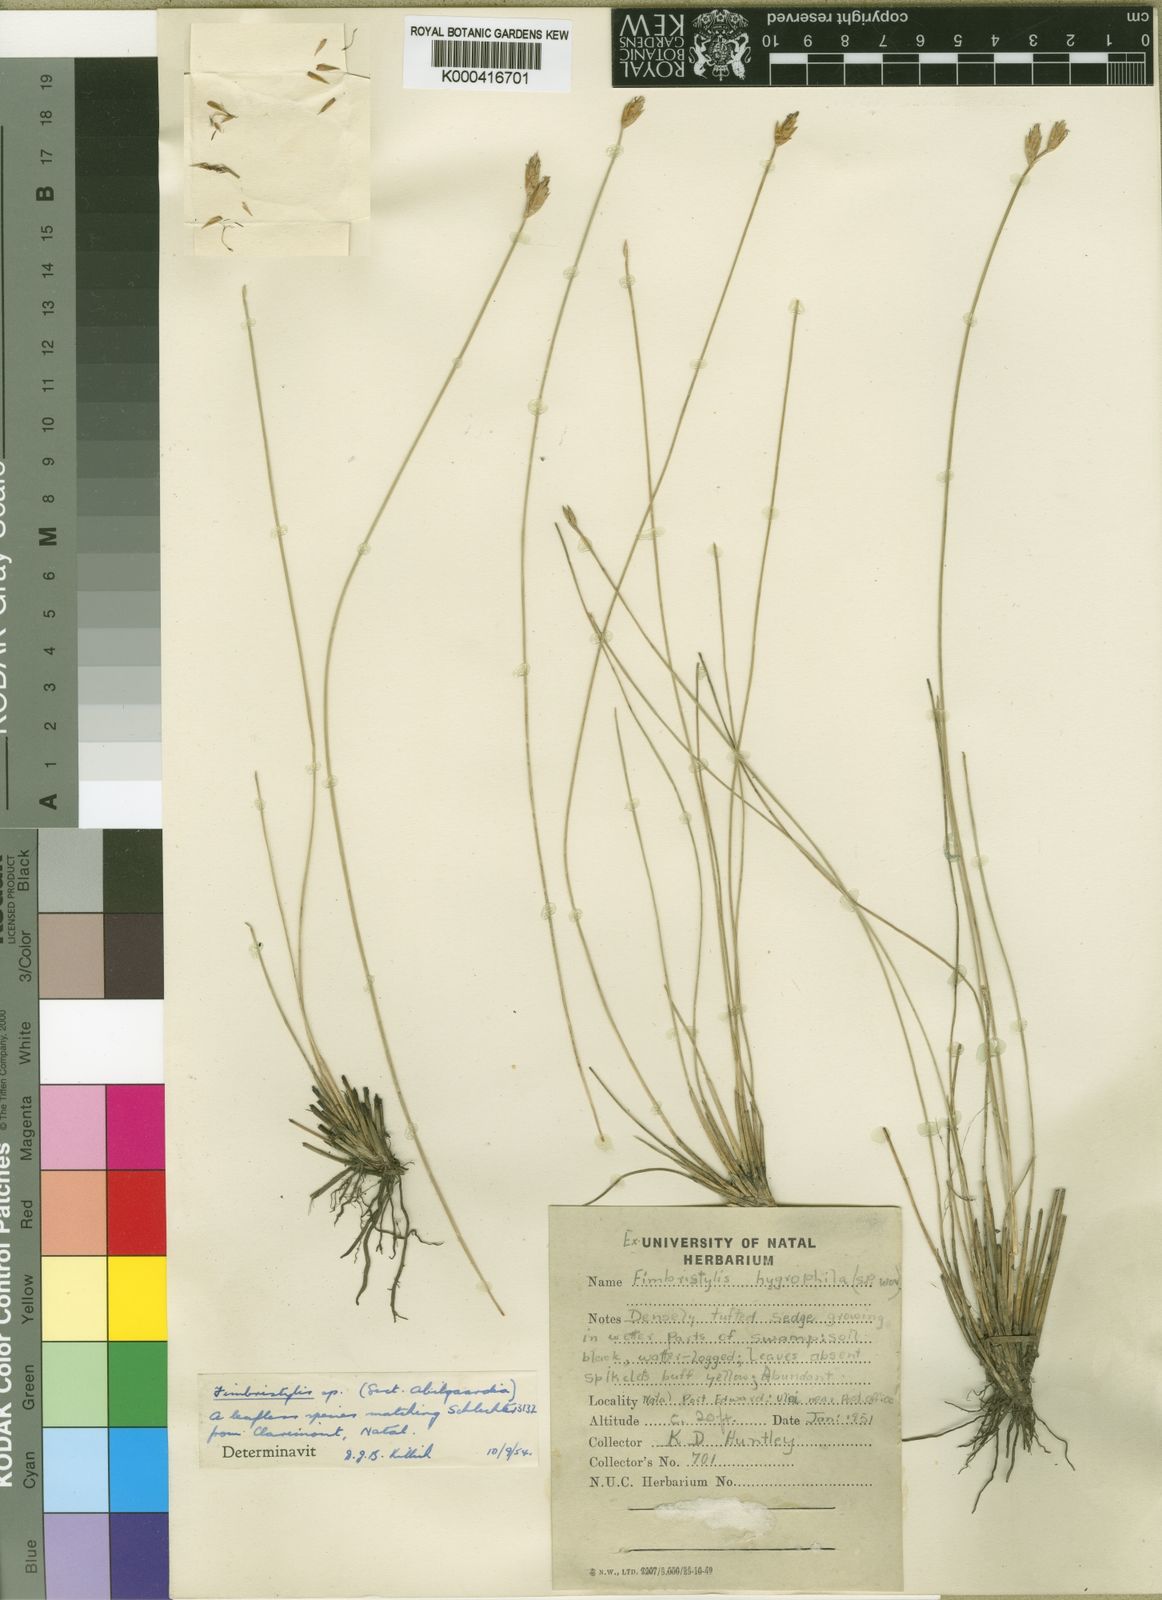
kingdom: Plantae
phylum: Tracheophyta
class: Liliopsida
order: Poales
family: Cyperaceae
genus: Fimbristylis
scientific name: Fimbristylis
